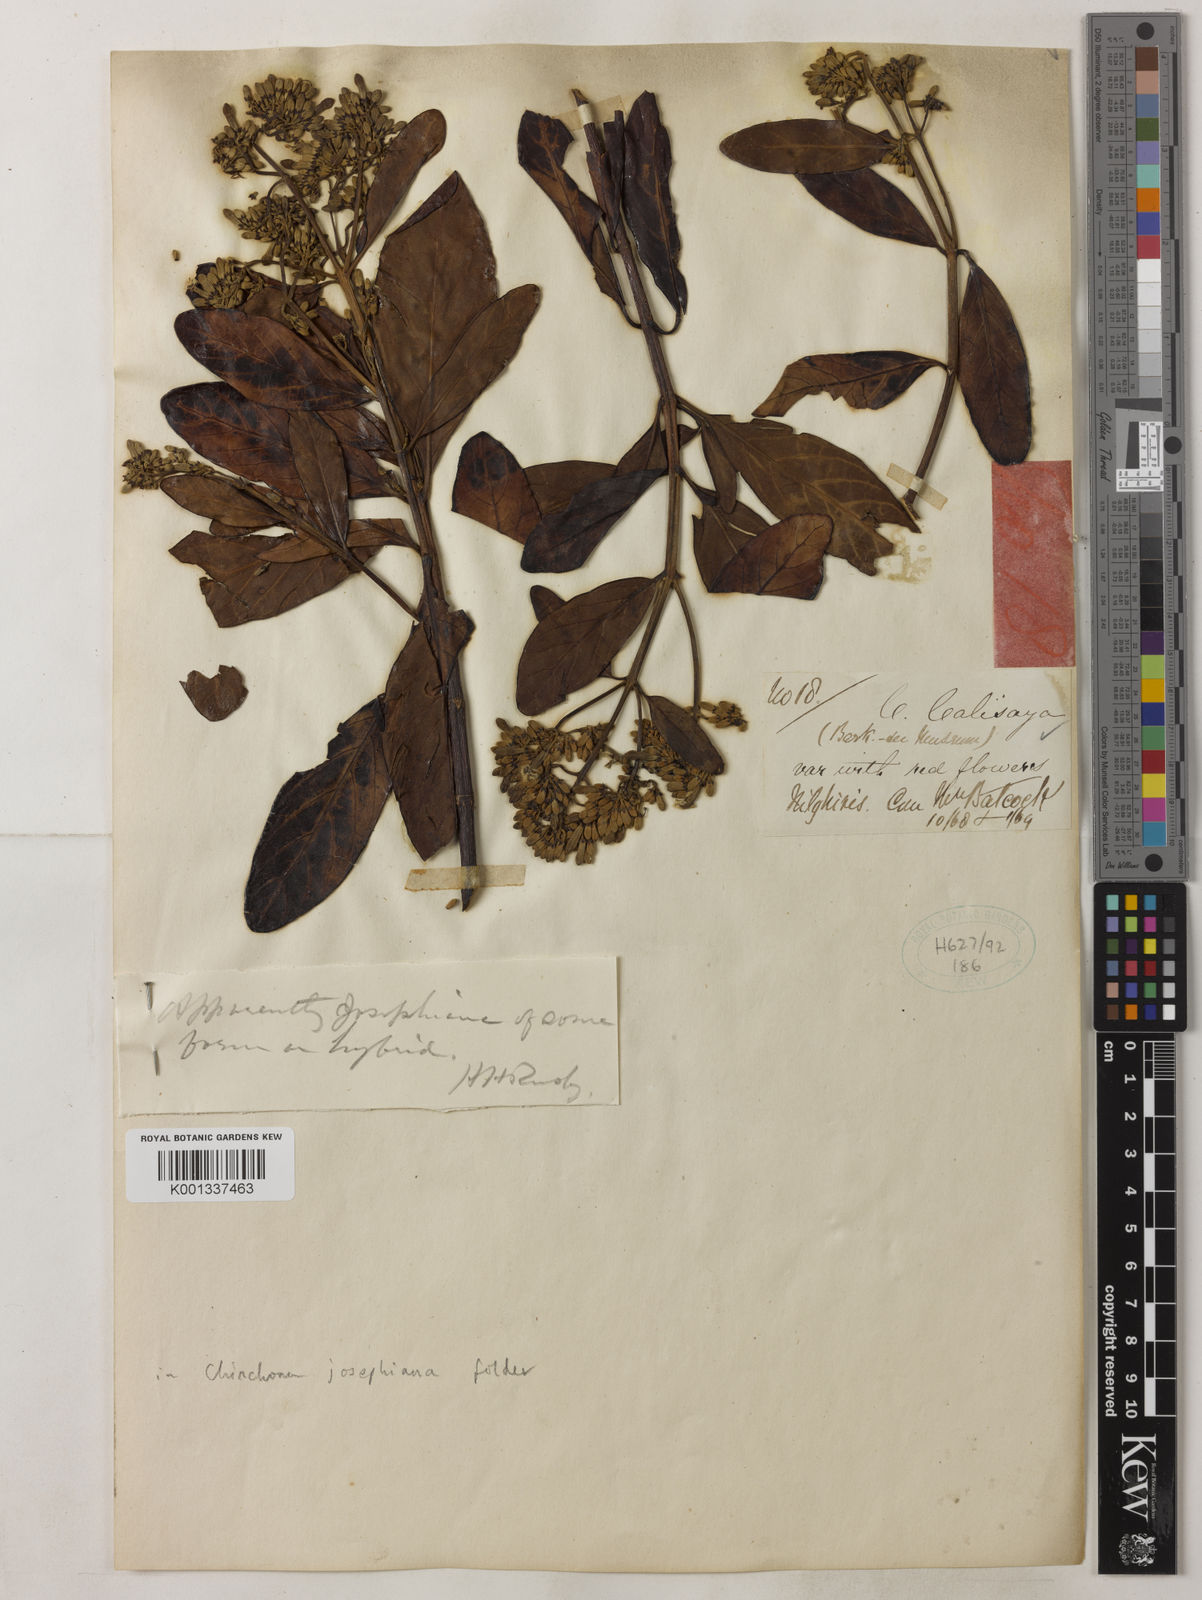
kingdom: Plantae
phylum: Tracheophyta
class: Magnoliopsida
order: Gentianales
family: Rubiaceae
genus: Cinchona
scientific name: Cinchona calisaya
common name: Ledgerbark
